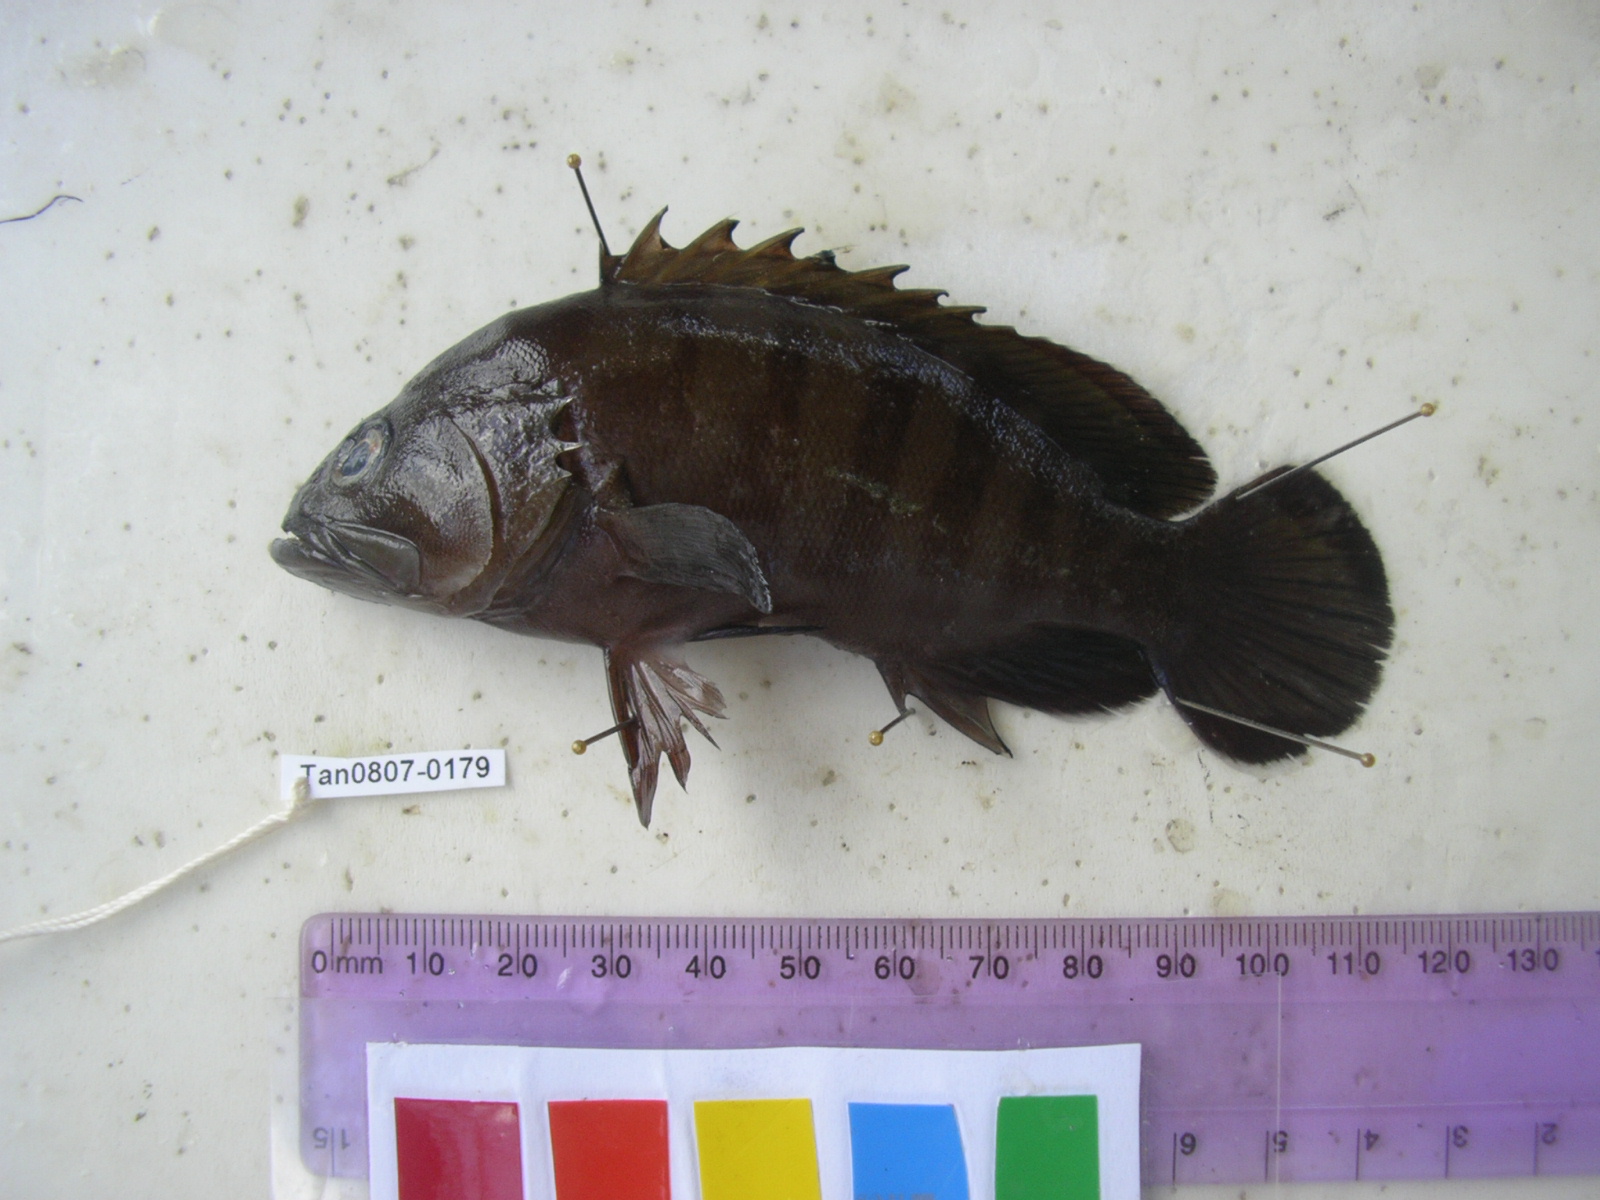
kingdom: Animalia
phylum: Chordata
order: Perciformes
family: Serranidae
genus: Cephalopholis
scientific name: Cephalopholis boenak
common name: Chocolate hind
